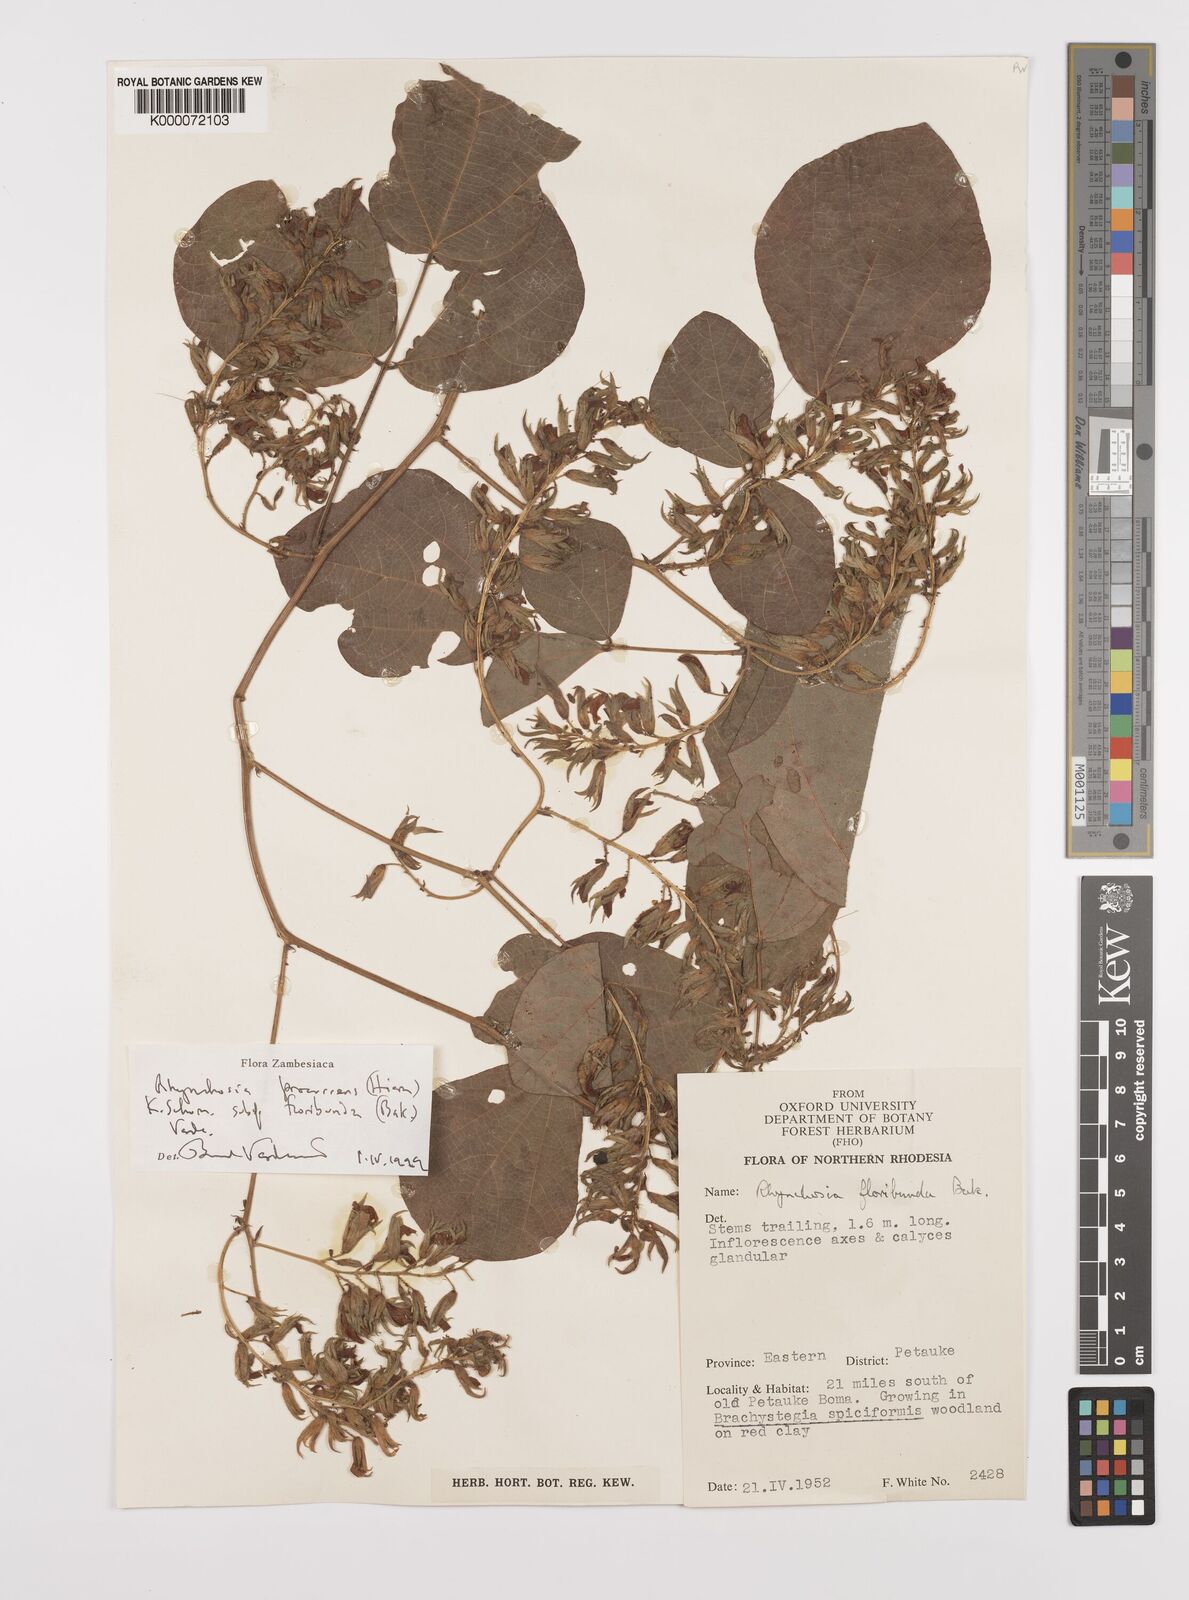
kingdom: Plantae
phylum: Tracheophyta
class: Magnoliopsida
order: Fabales
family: Fabaceae
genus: Rhynchosia
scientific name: Rhynchosia procurrens
